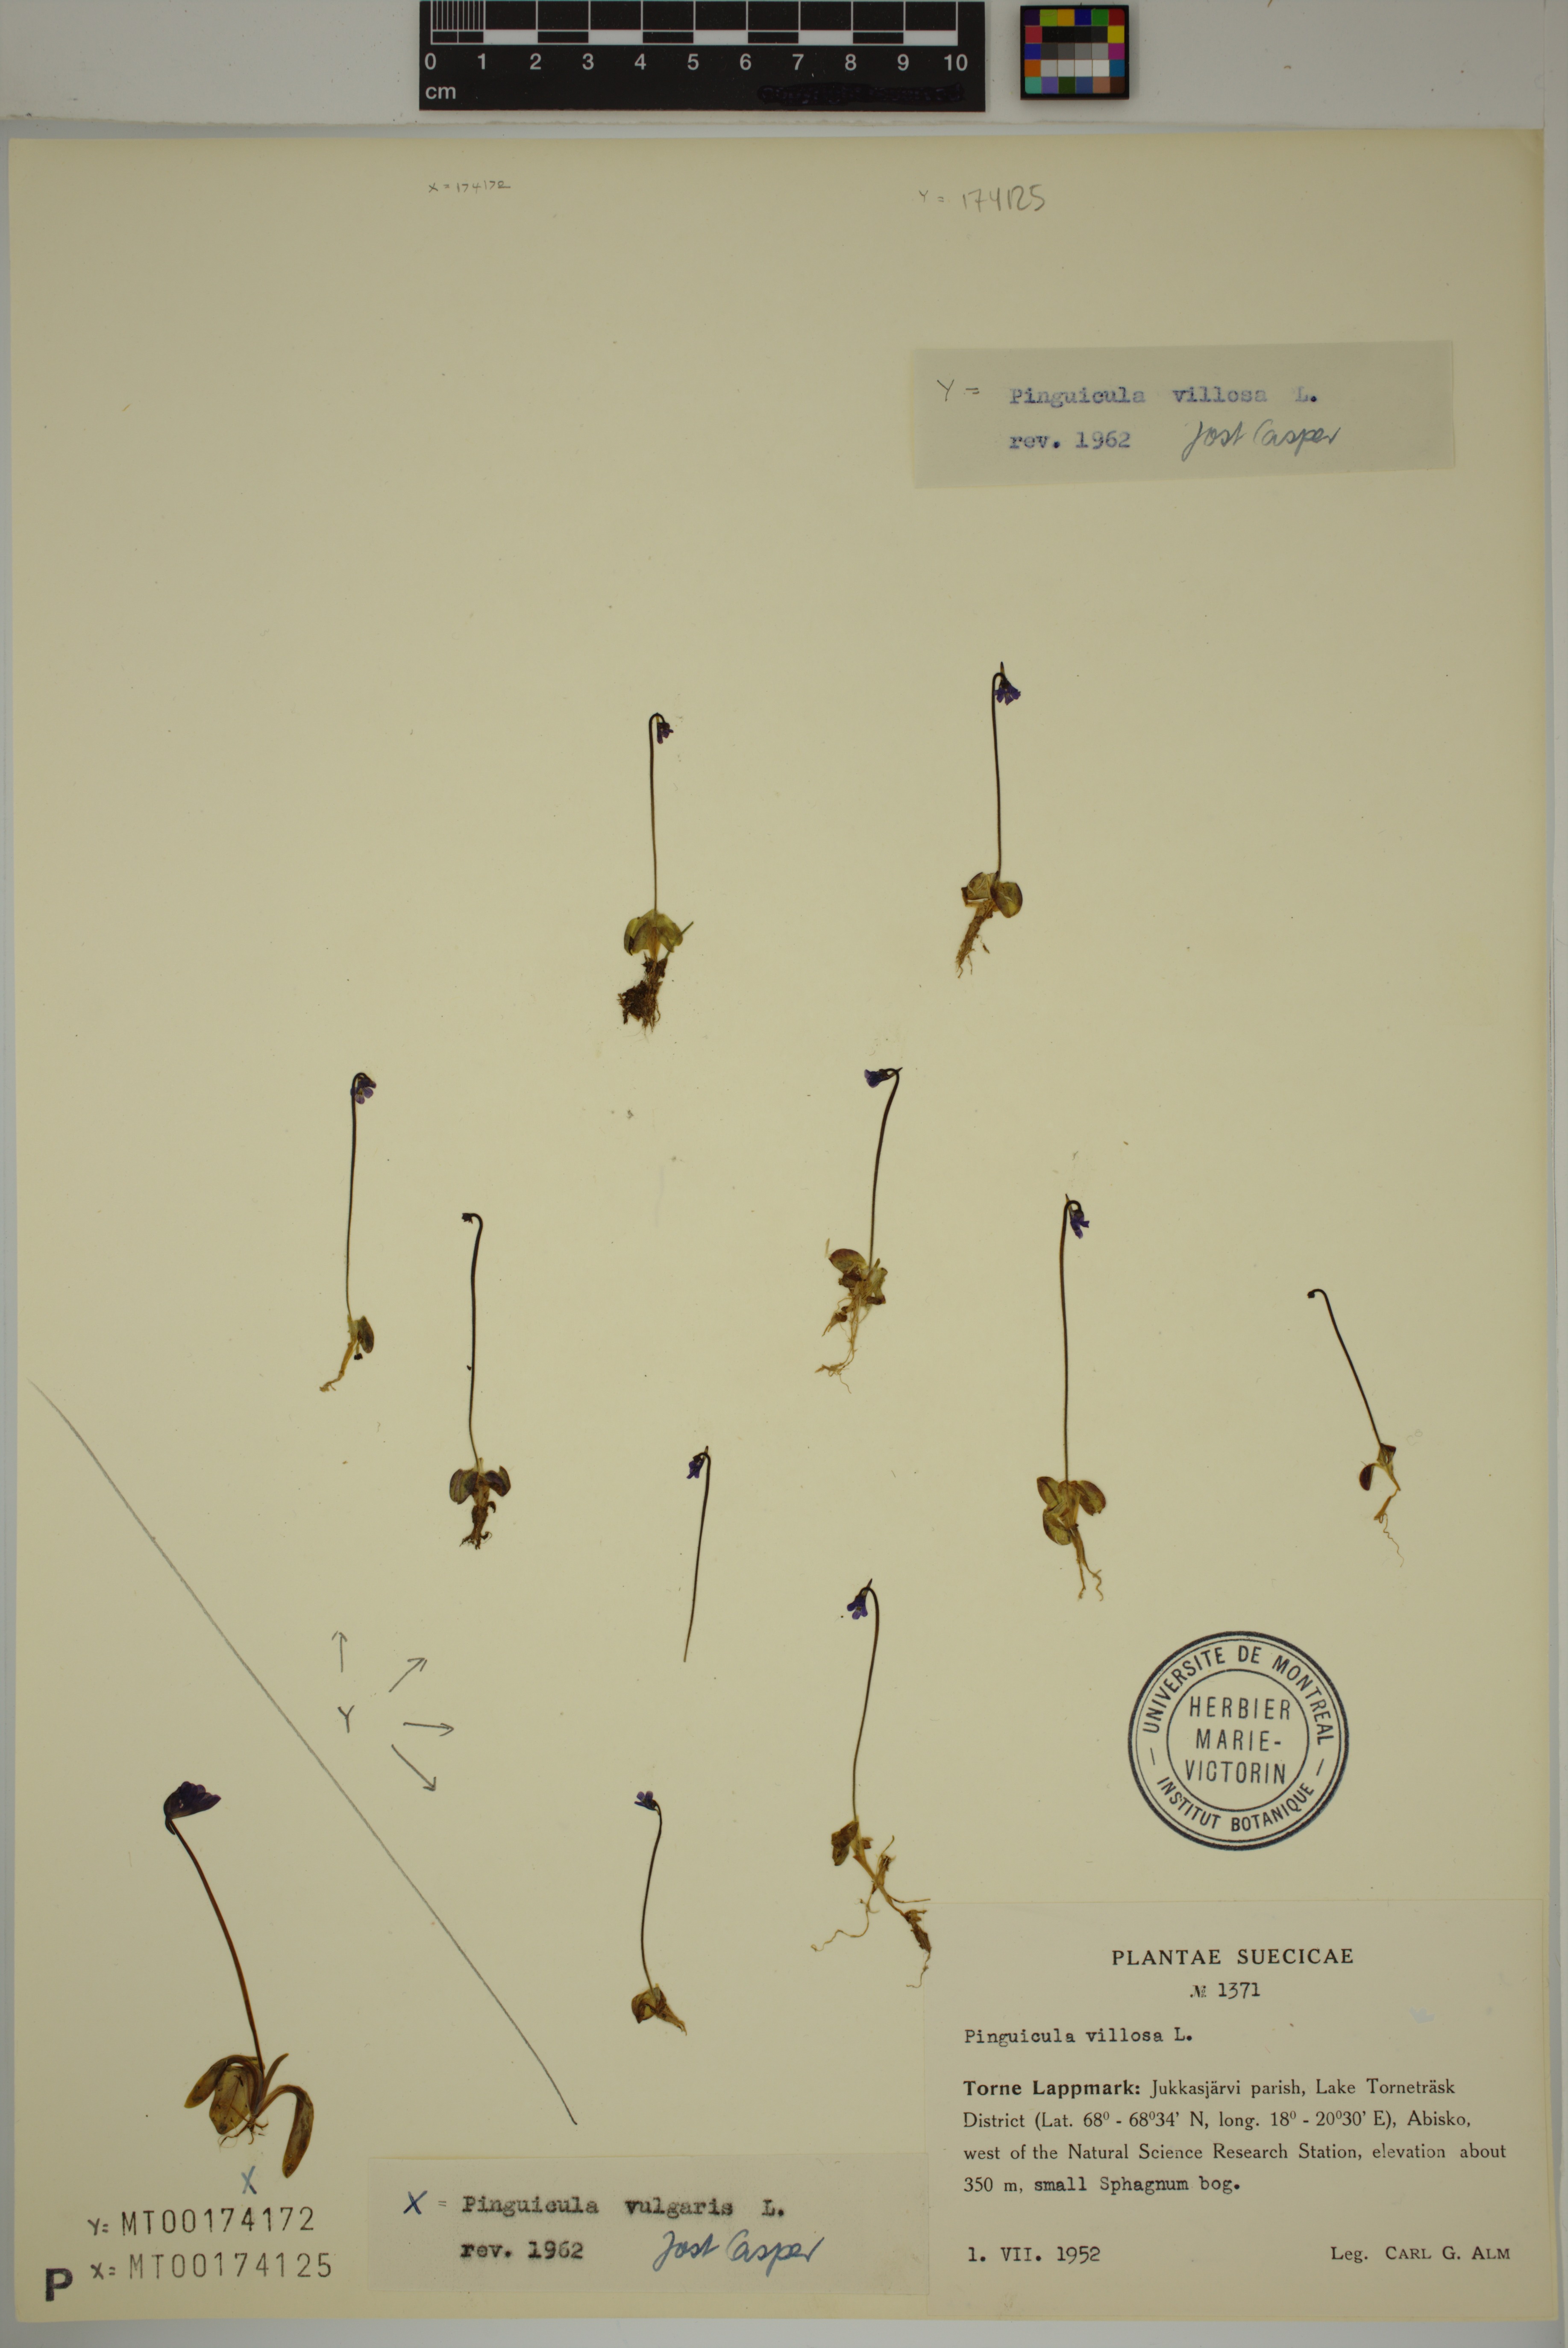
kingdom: Plantae
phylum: Tracheophyta
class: Magnoliopsida
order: Lamiales
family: Lentibulariaceae
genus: Pinguicula
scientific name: Pinguicula villosa
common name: Hairy butterwort
